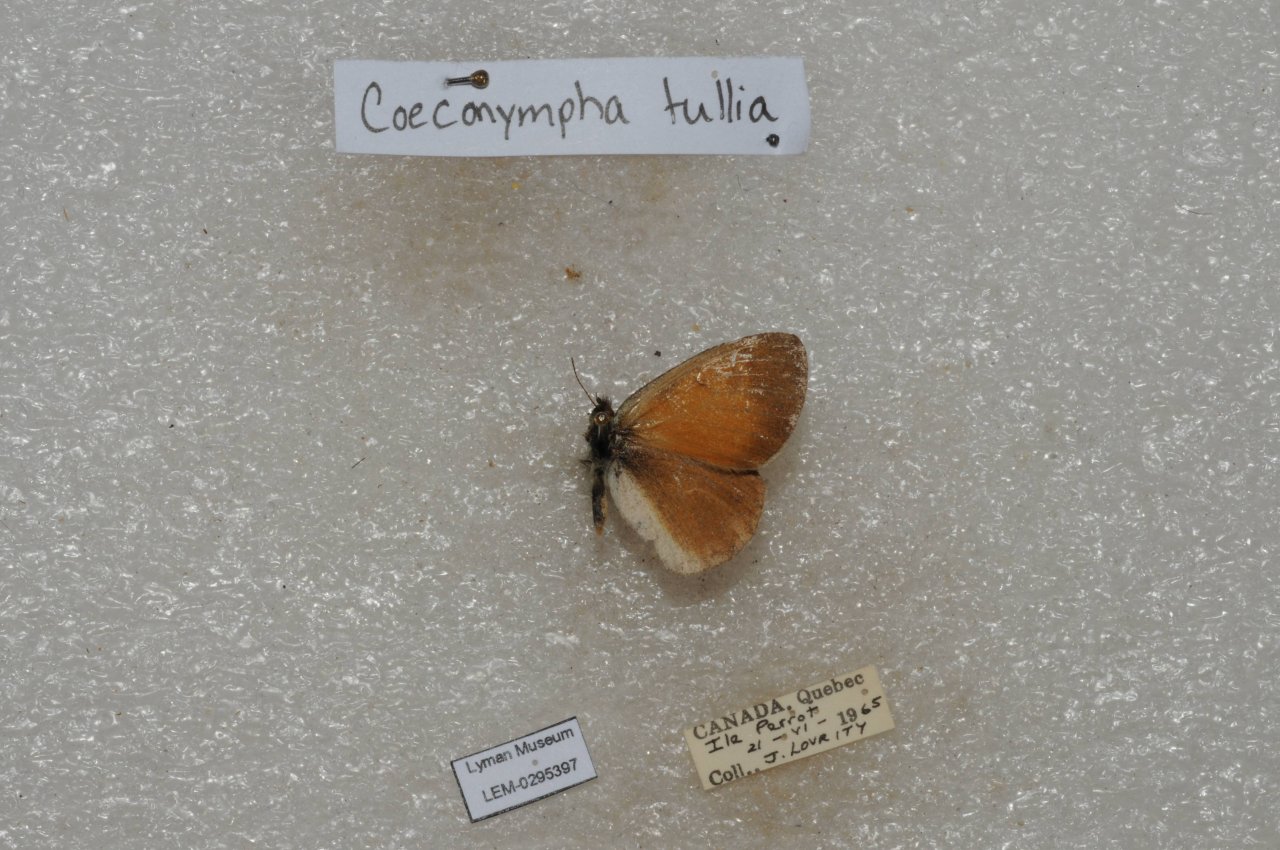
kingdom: Animalia
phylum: Arthropoda
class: Insecta
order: Lepidoptera
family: Nymphalidae
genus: Coenonympha
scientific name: Coenonympha tullia
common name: Large Heath
